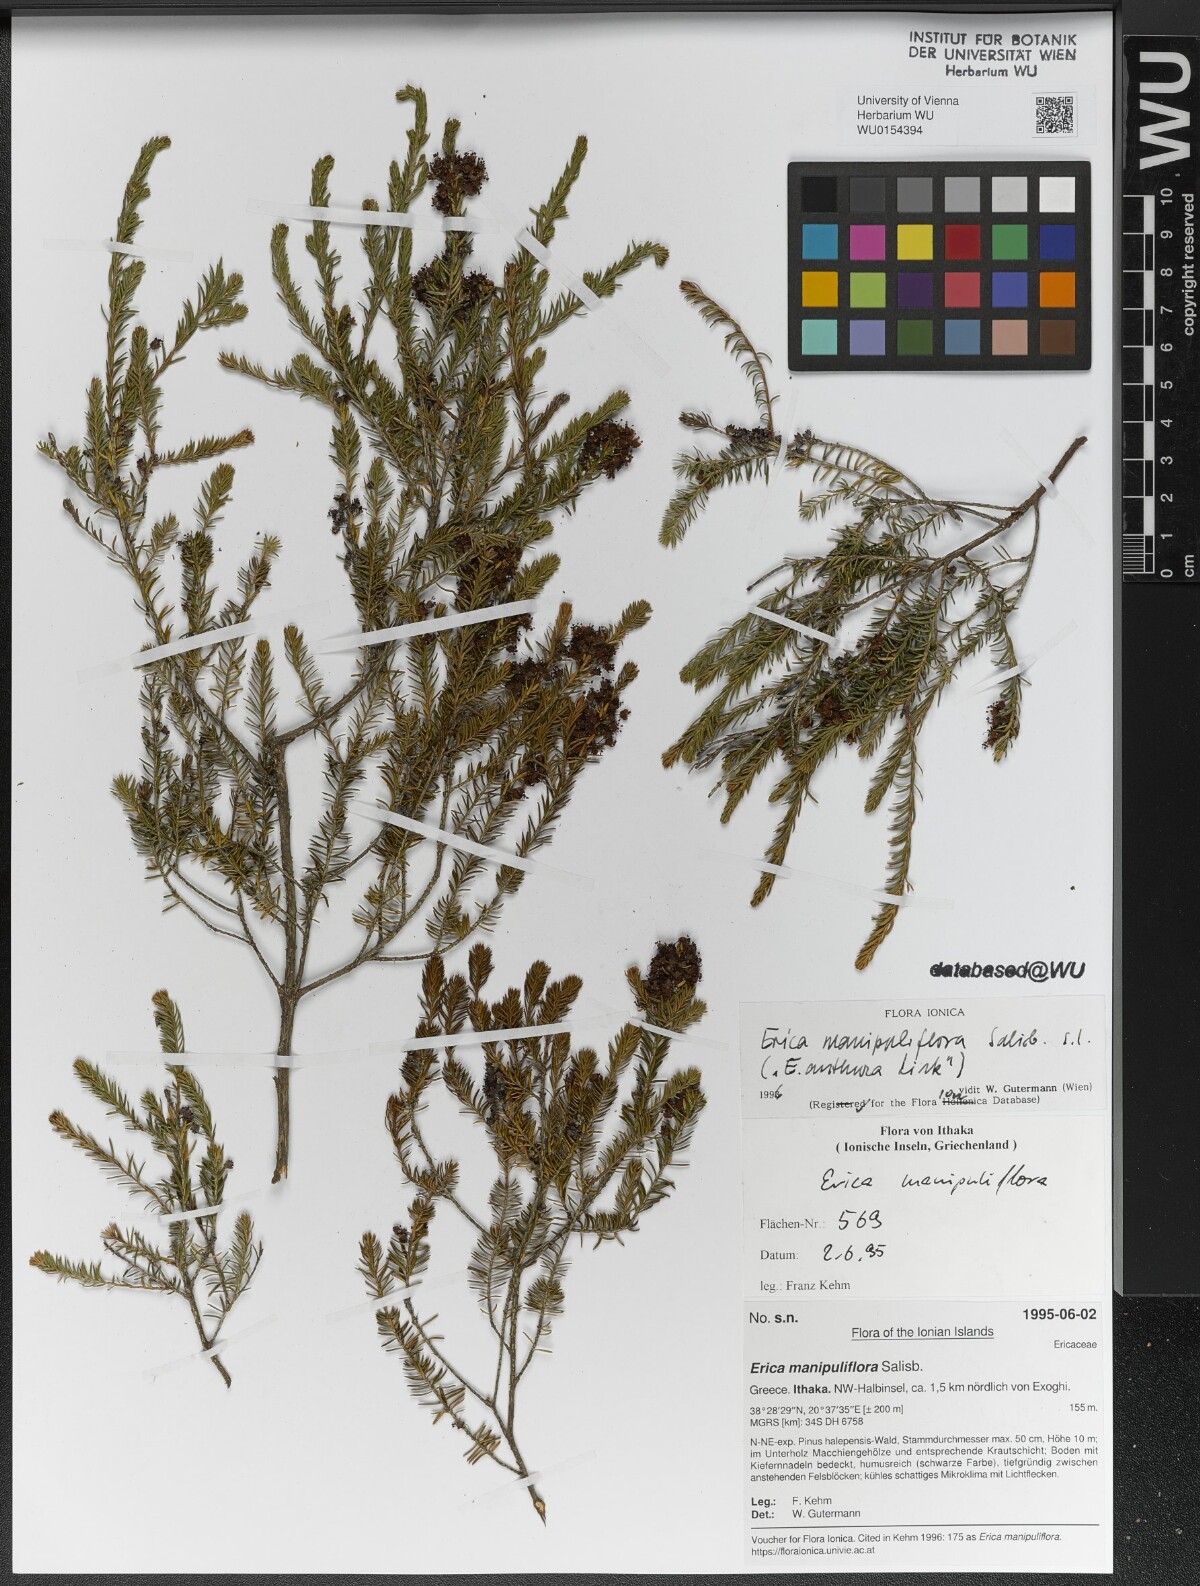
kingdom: Plantae
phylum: Tracheophyta
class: Magnoliopsida
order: Ericales
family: Ericaceae
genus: Erica
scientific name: Erica manipuliflora
